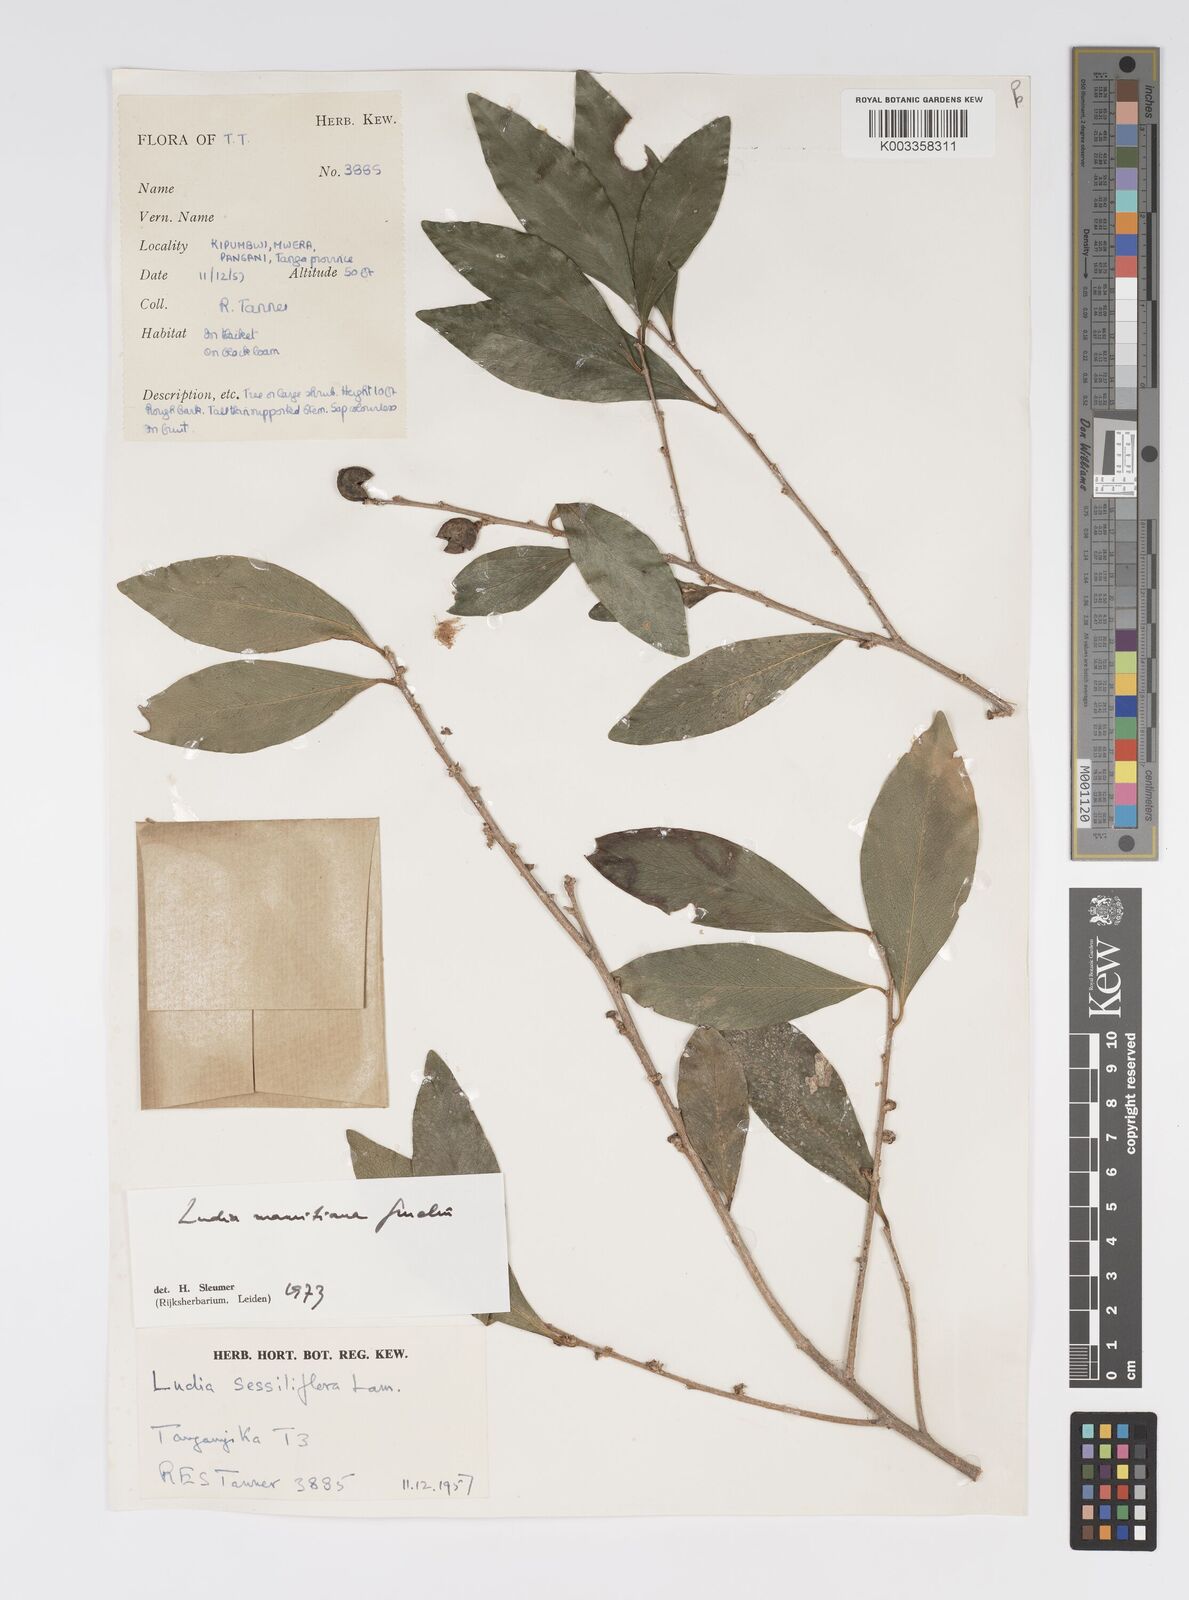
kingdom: Plantae
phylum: Tracheophyta
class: Magnoliopsida
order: Malpighiales
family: Salicaceae
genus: Ludia
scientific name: Ludia mauritiana
